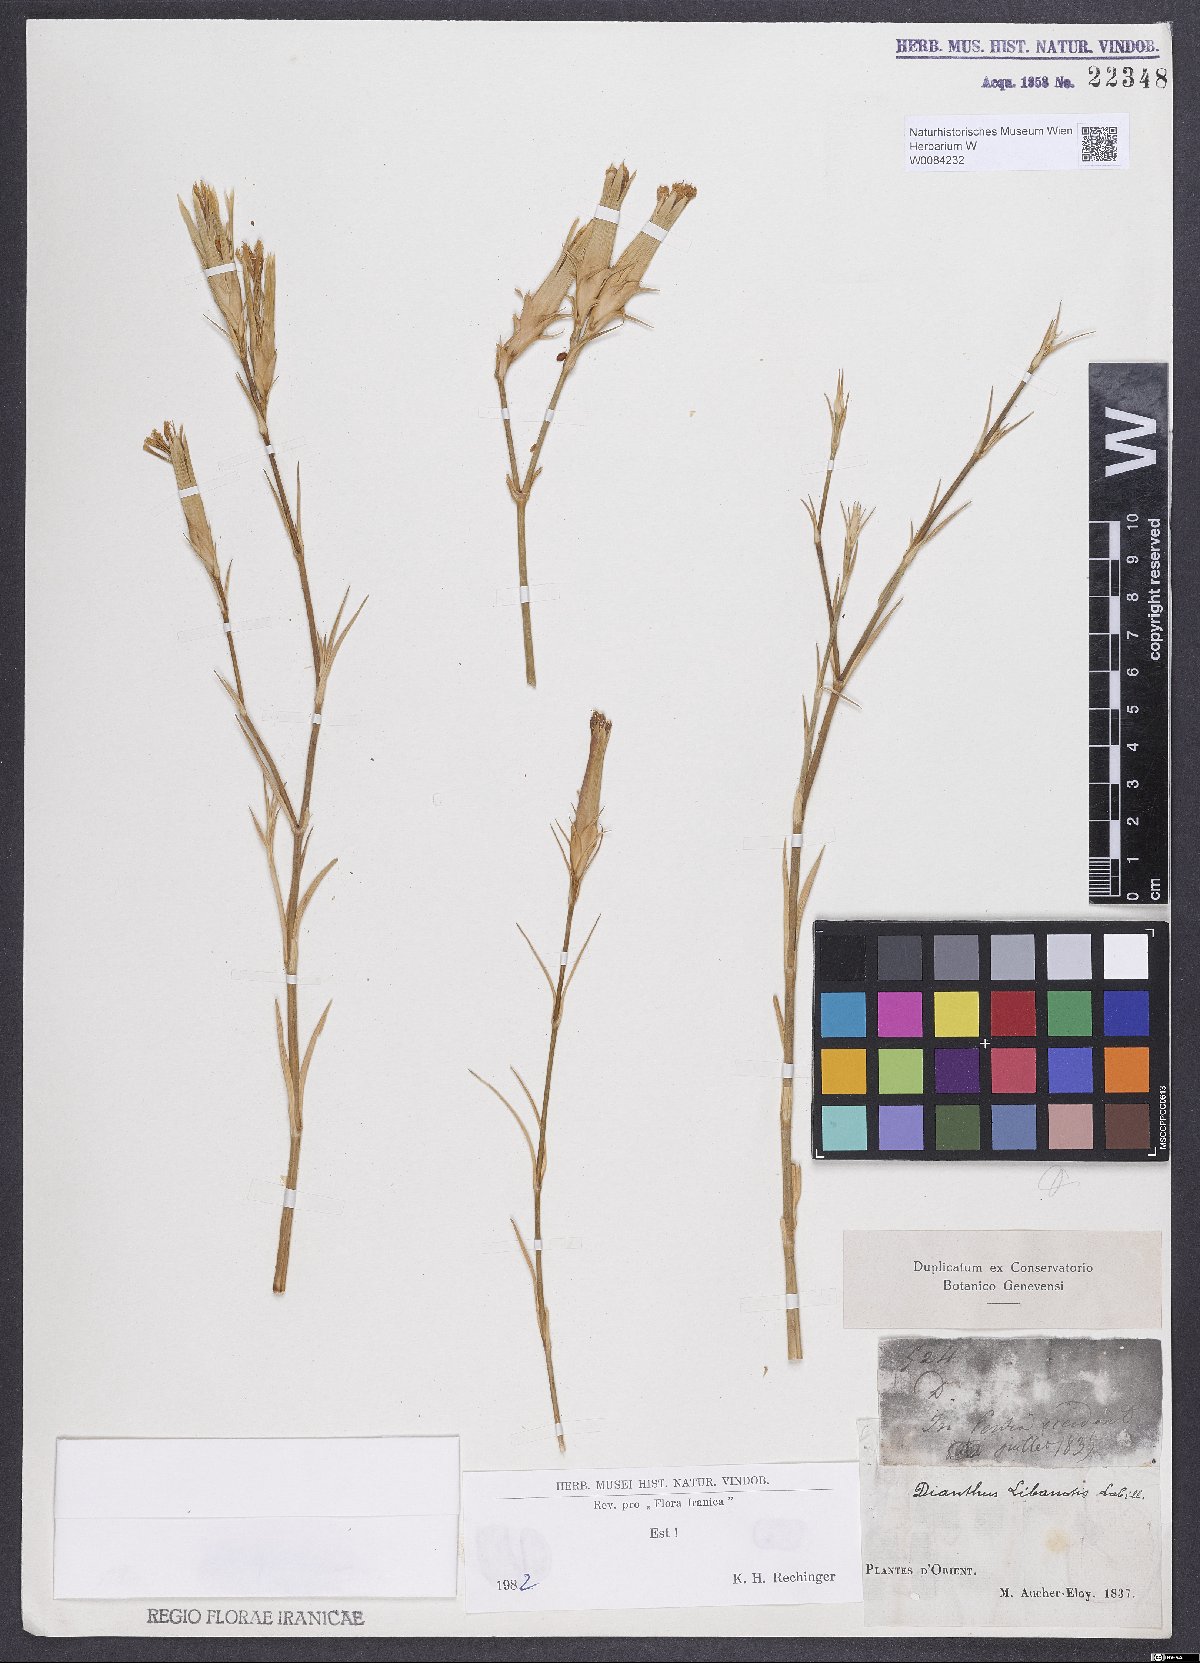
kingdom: Plantae
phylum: Tracheophyta
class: Magnoliopsida
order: Caryophyllales
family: Caryophyllaceae
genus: Dianthus
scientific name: Dianthus libanotis
